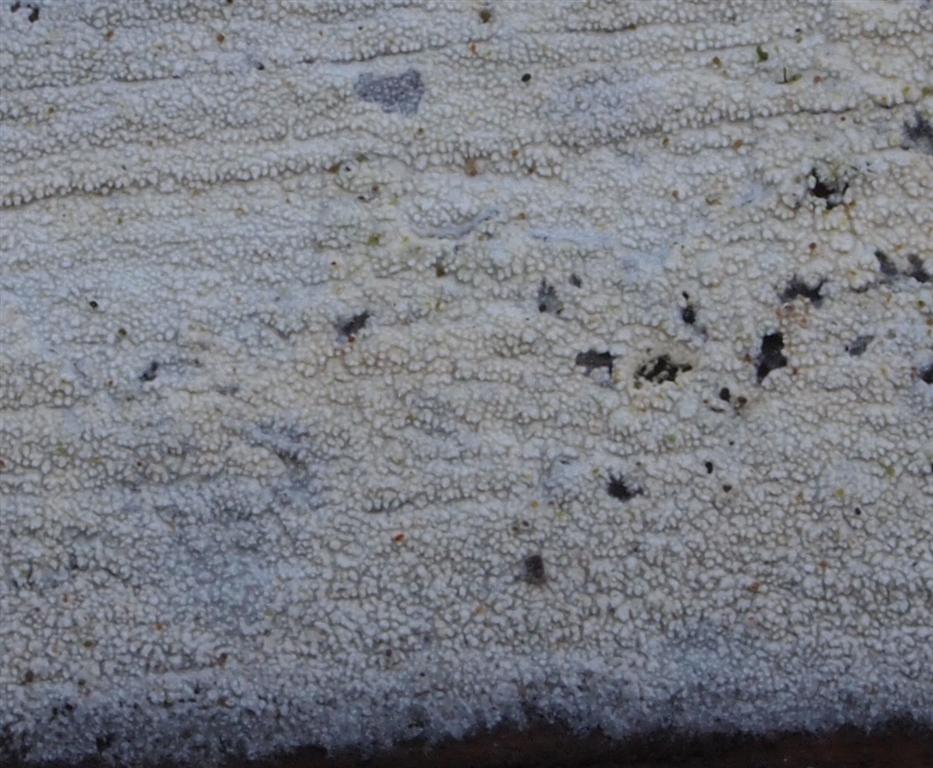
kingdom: Fungi
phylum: Basidiomycota
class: Agaricomycetes
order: Hymenochaetales
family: Schizoporaceae
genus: Xylodon
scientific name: Xylodon nesporii
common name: fintandet tandsvamp
